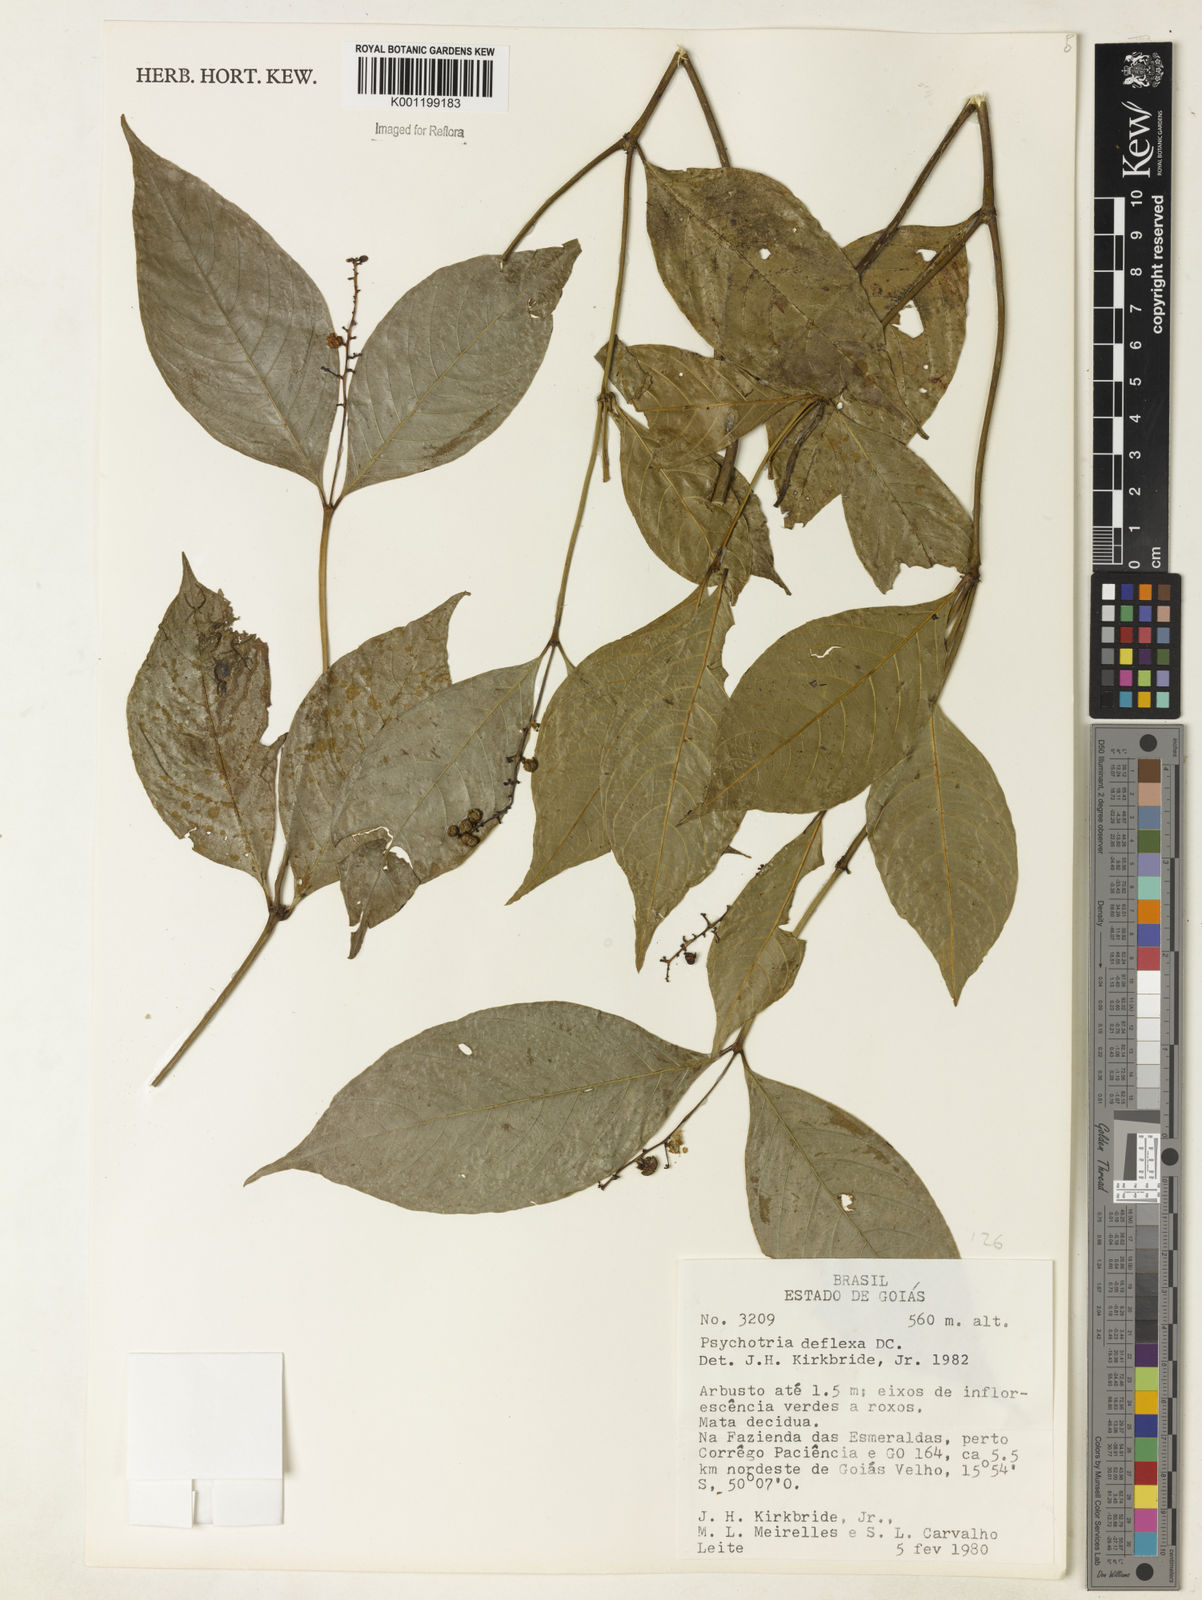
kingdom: Plantae
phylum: Tracheophyta
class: Magnoliopsida
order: Gentianales
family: Rubiaceae
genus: Palicourea
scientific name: Palicourea deflexa
